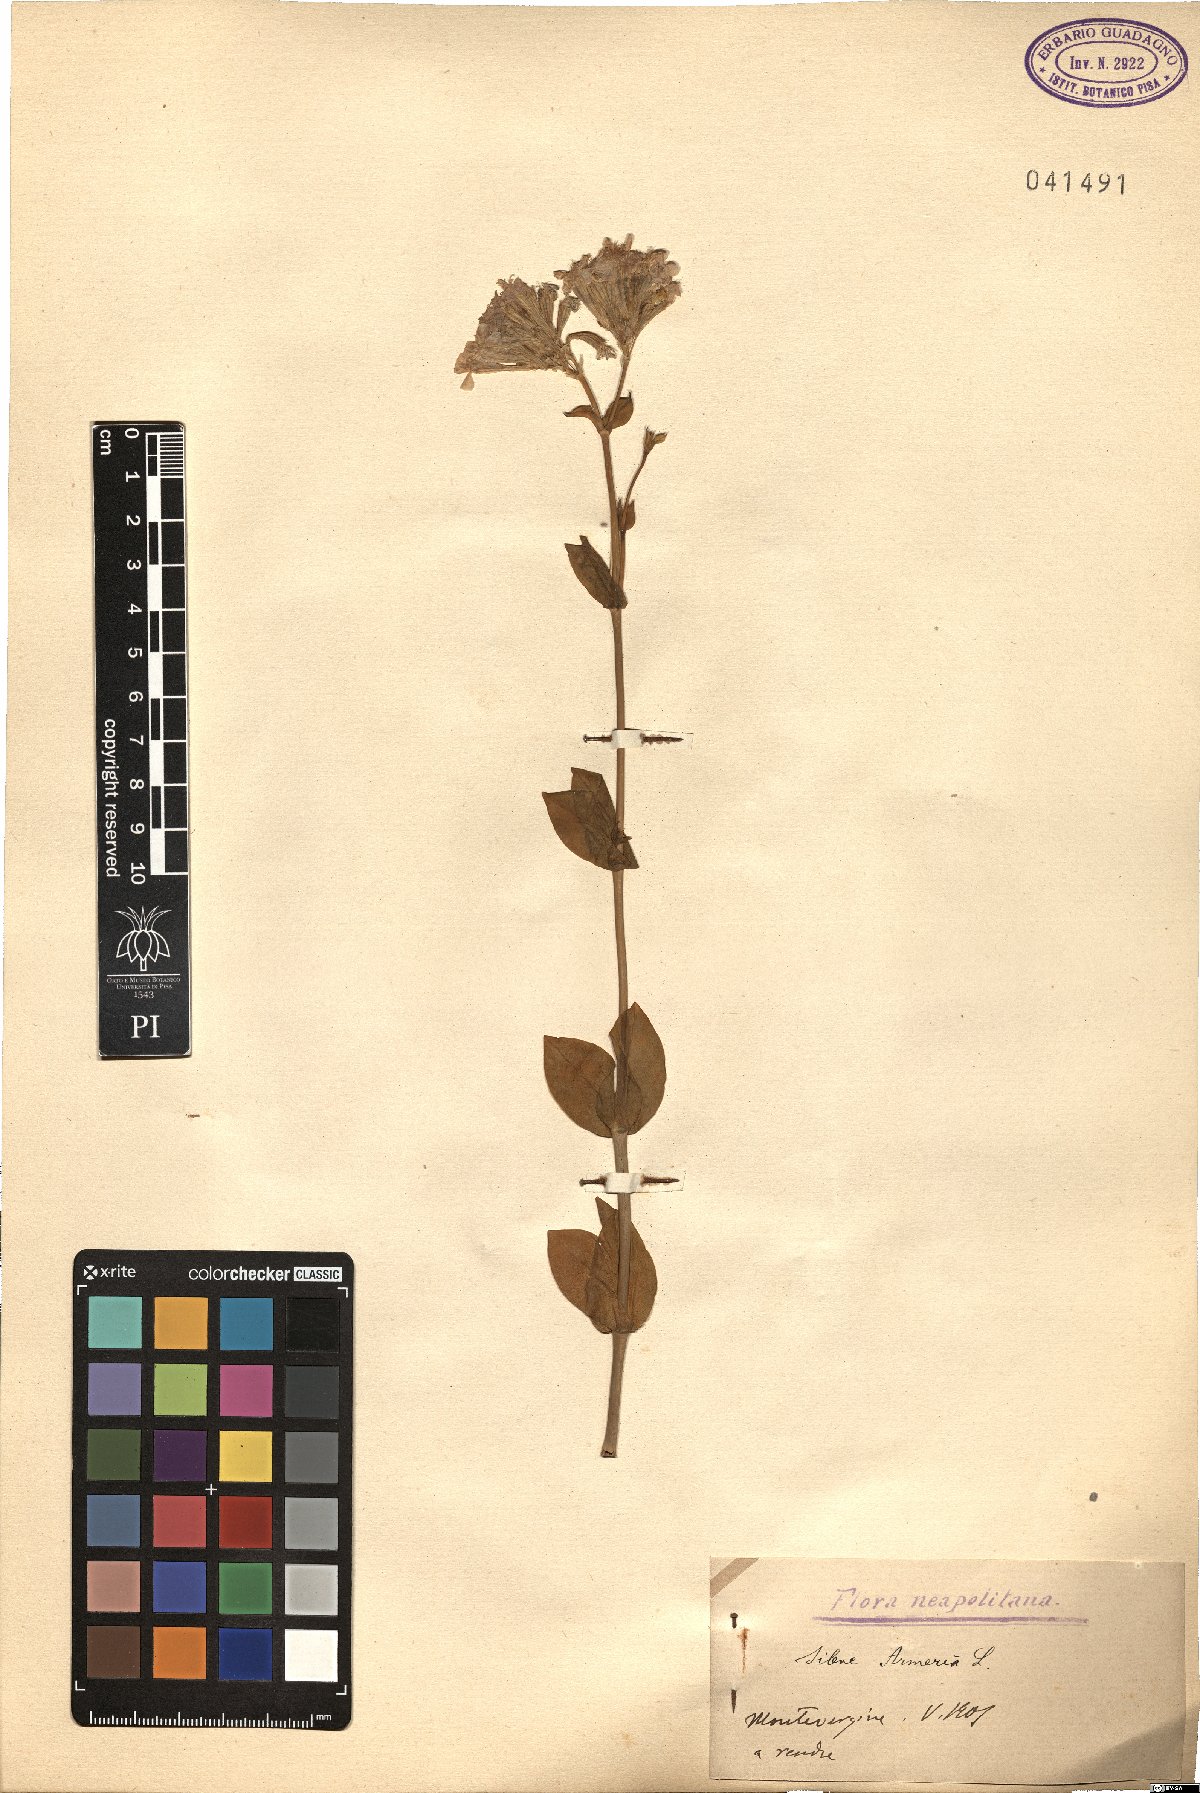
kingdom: Plantae
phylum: Tracheophyta
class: Magnoliopsida
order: Caryophyllales
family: Caryophyllaceae
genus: Atocion
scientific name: Atocion armeria
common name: Sweet william catchfly
